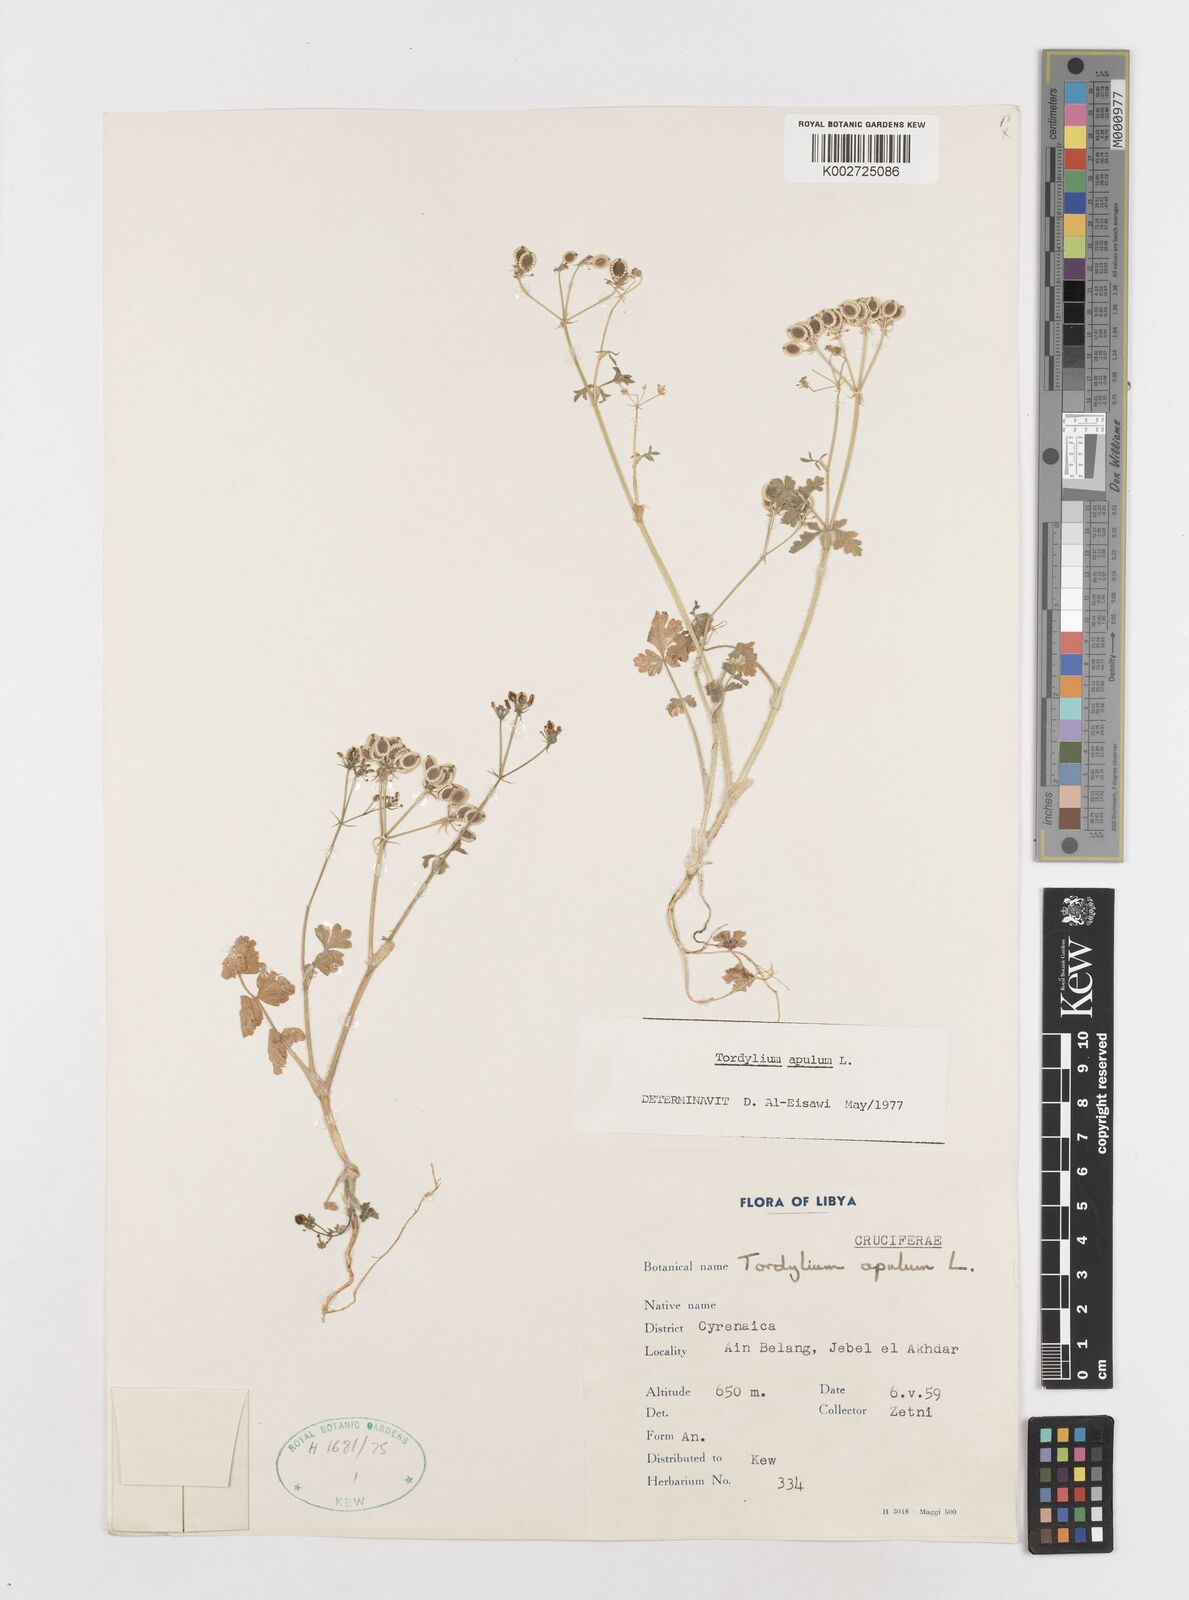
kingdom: Plantae
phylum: Tracheophyta
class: Magnoliopsida
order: Apiales
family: Apiaceae
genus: Tordylium
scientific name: Tordylium apulum
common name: Mediterranean hartwort
